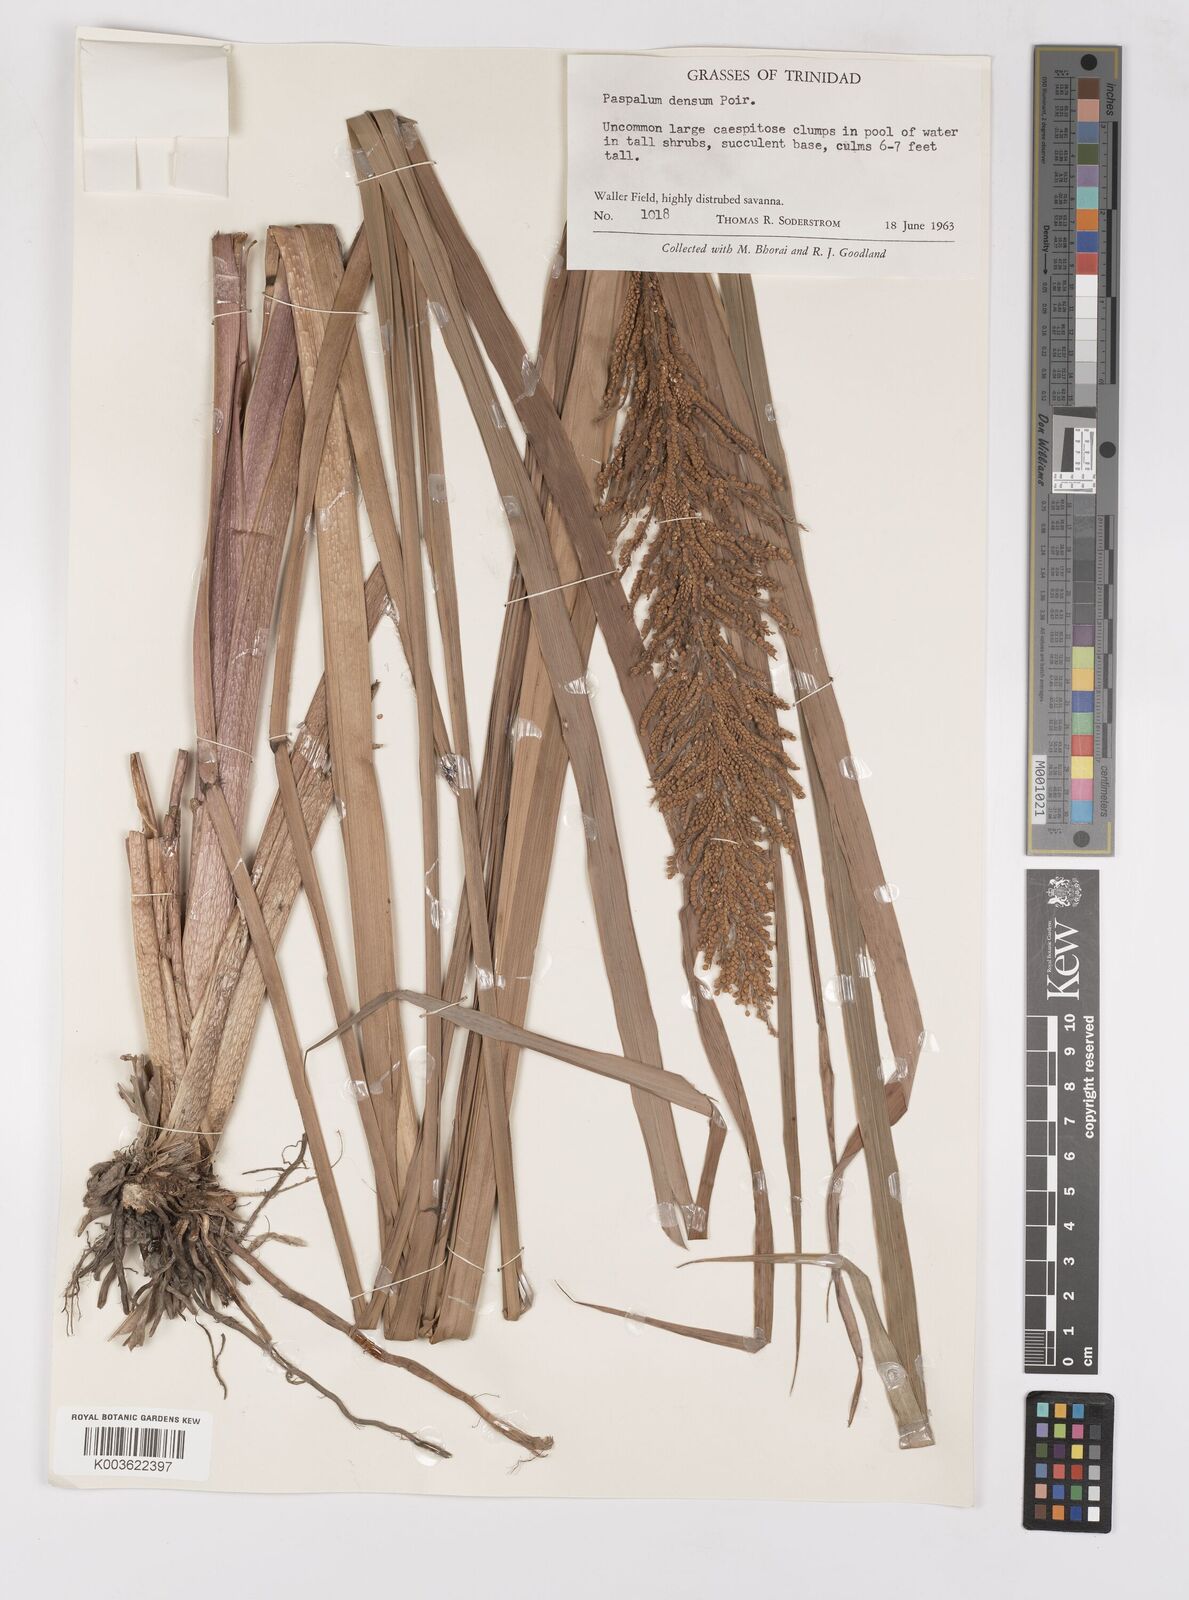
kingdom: Plantae
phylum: Tracheophyta
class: Liliopsida
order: Poales
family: Poaceae
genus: Paspalum
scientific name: Paspalum densum
